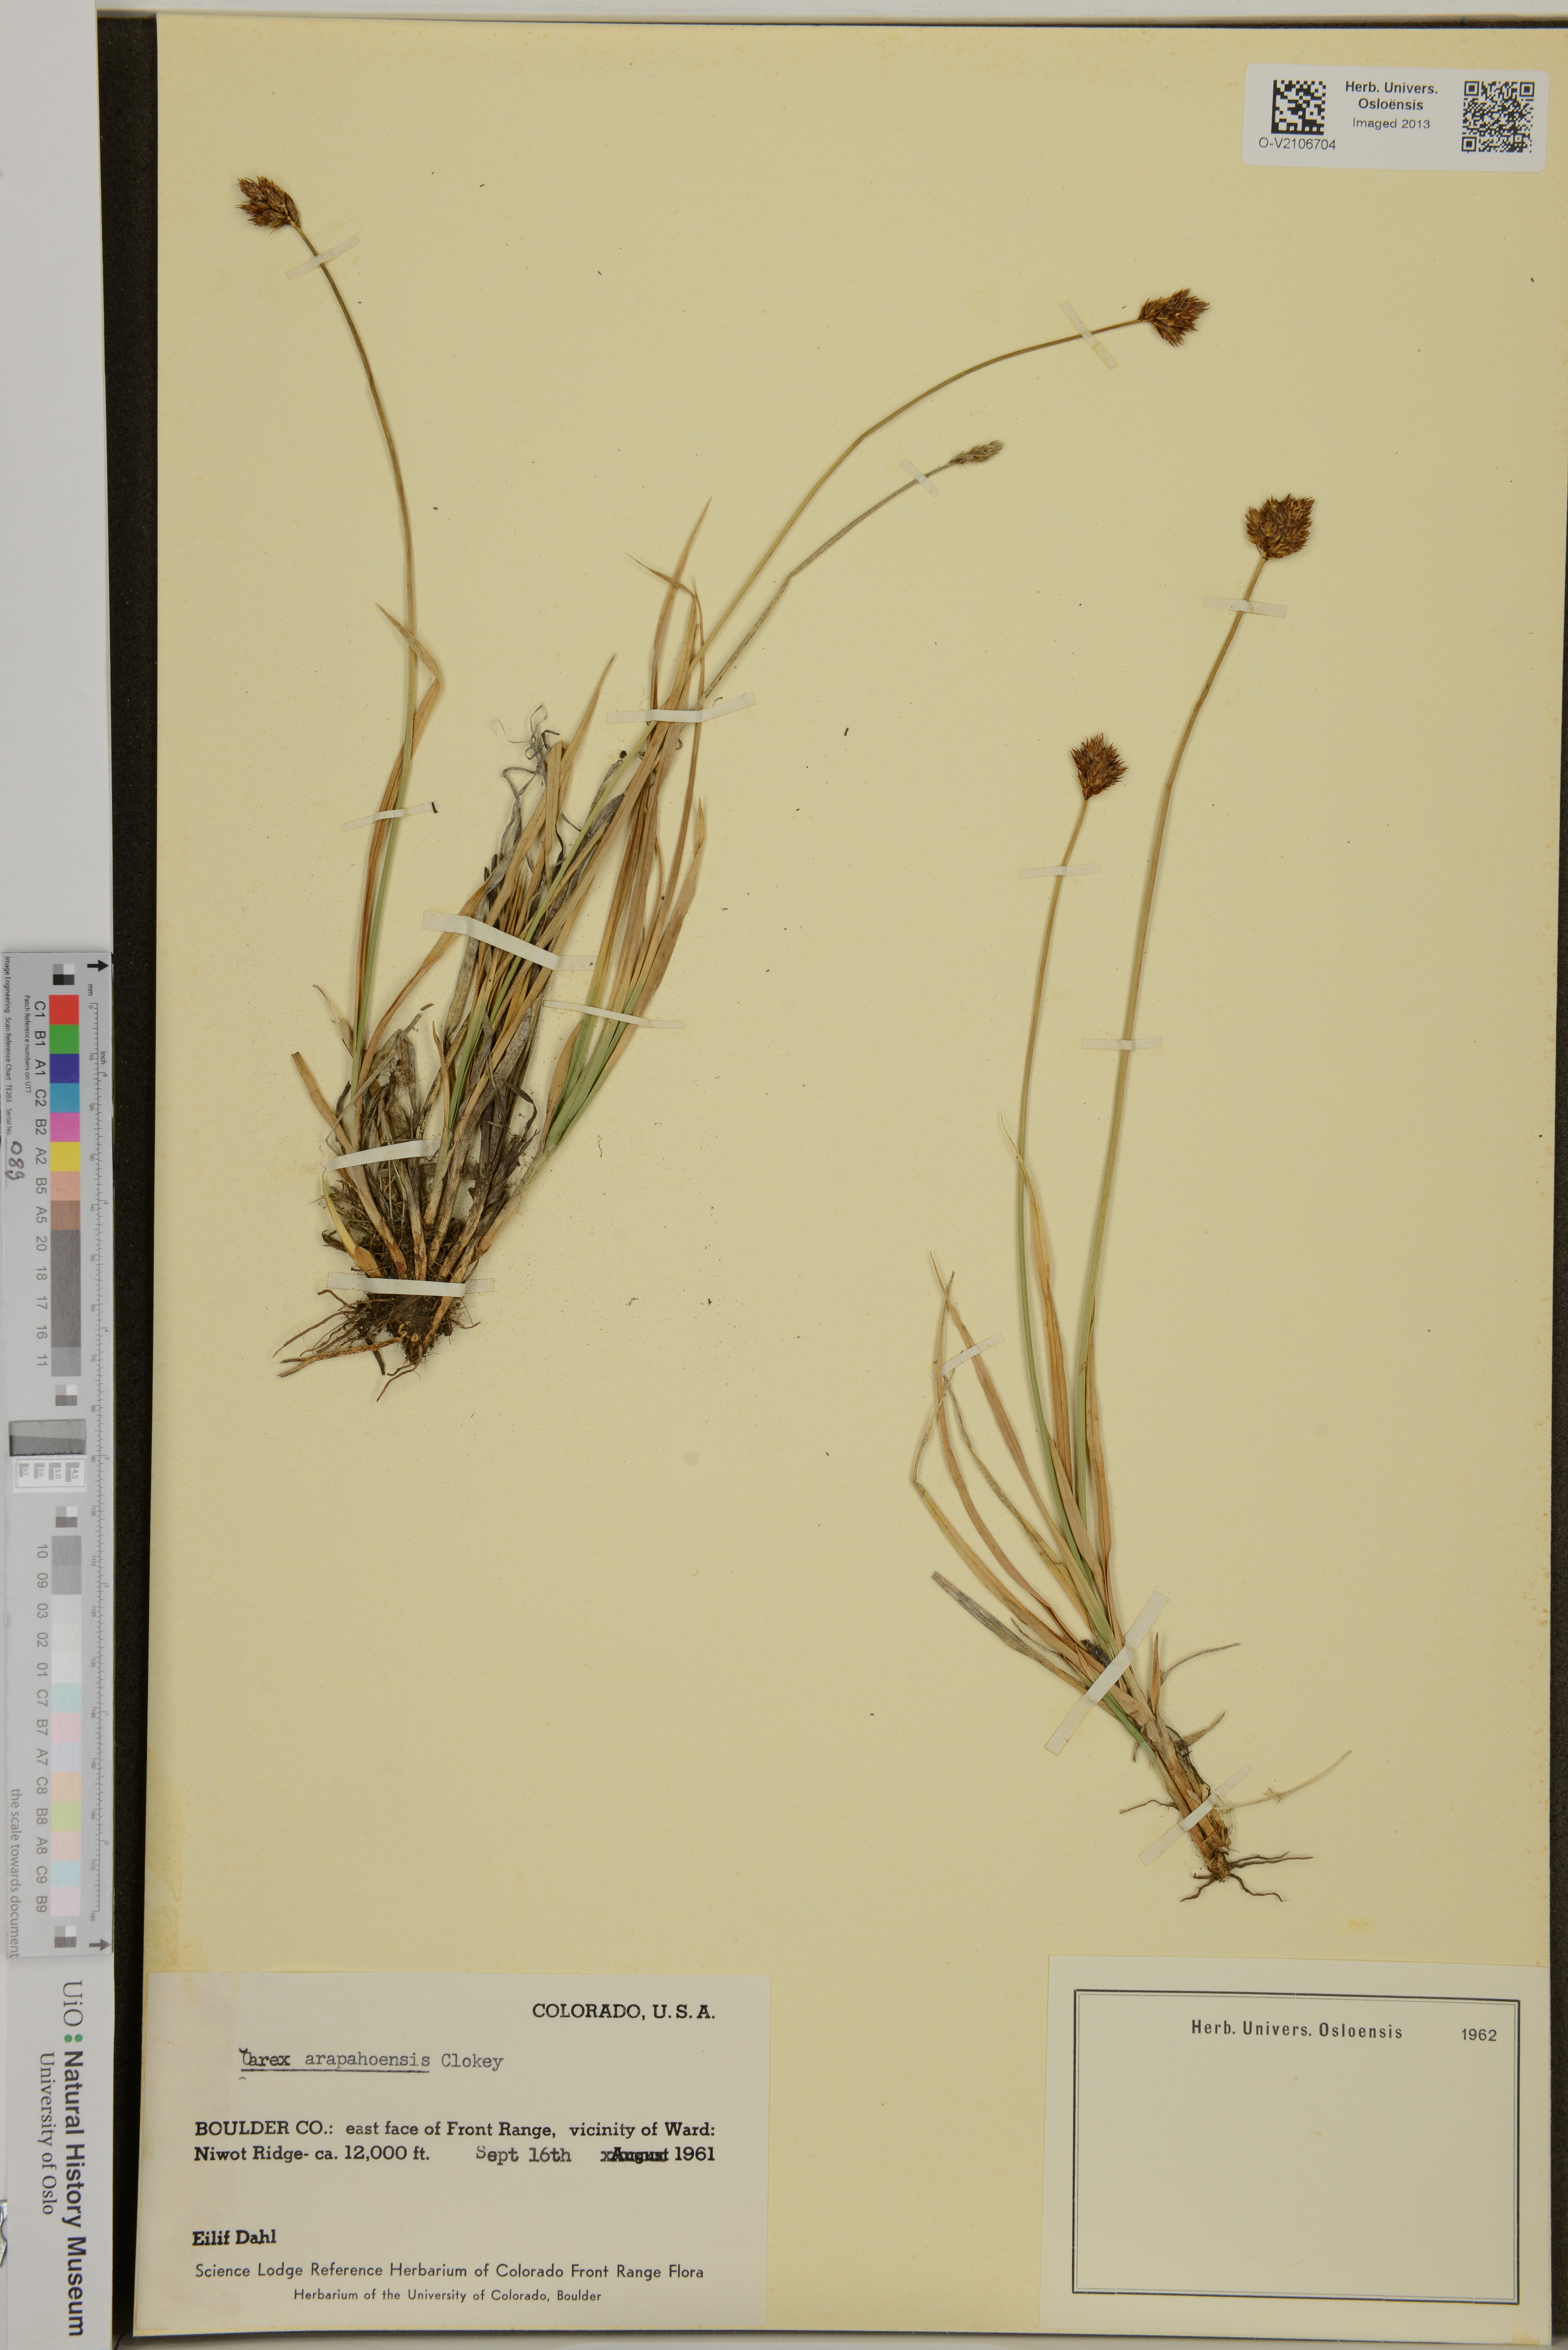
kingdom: Plantae
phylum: Tracheophyta
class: Liliopsida
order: Poales
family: Cyperaceae
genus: Carex
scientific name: Carex arapahoensis
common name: Arapaho sedge
